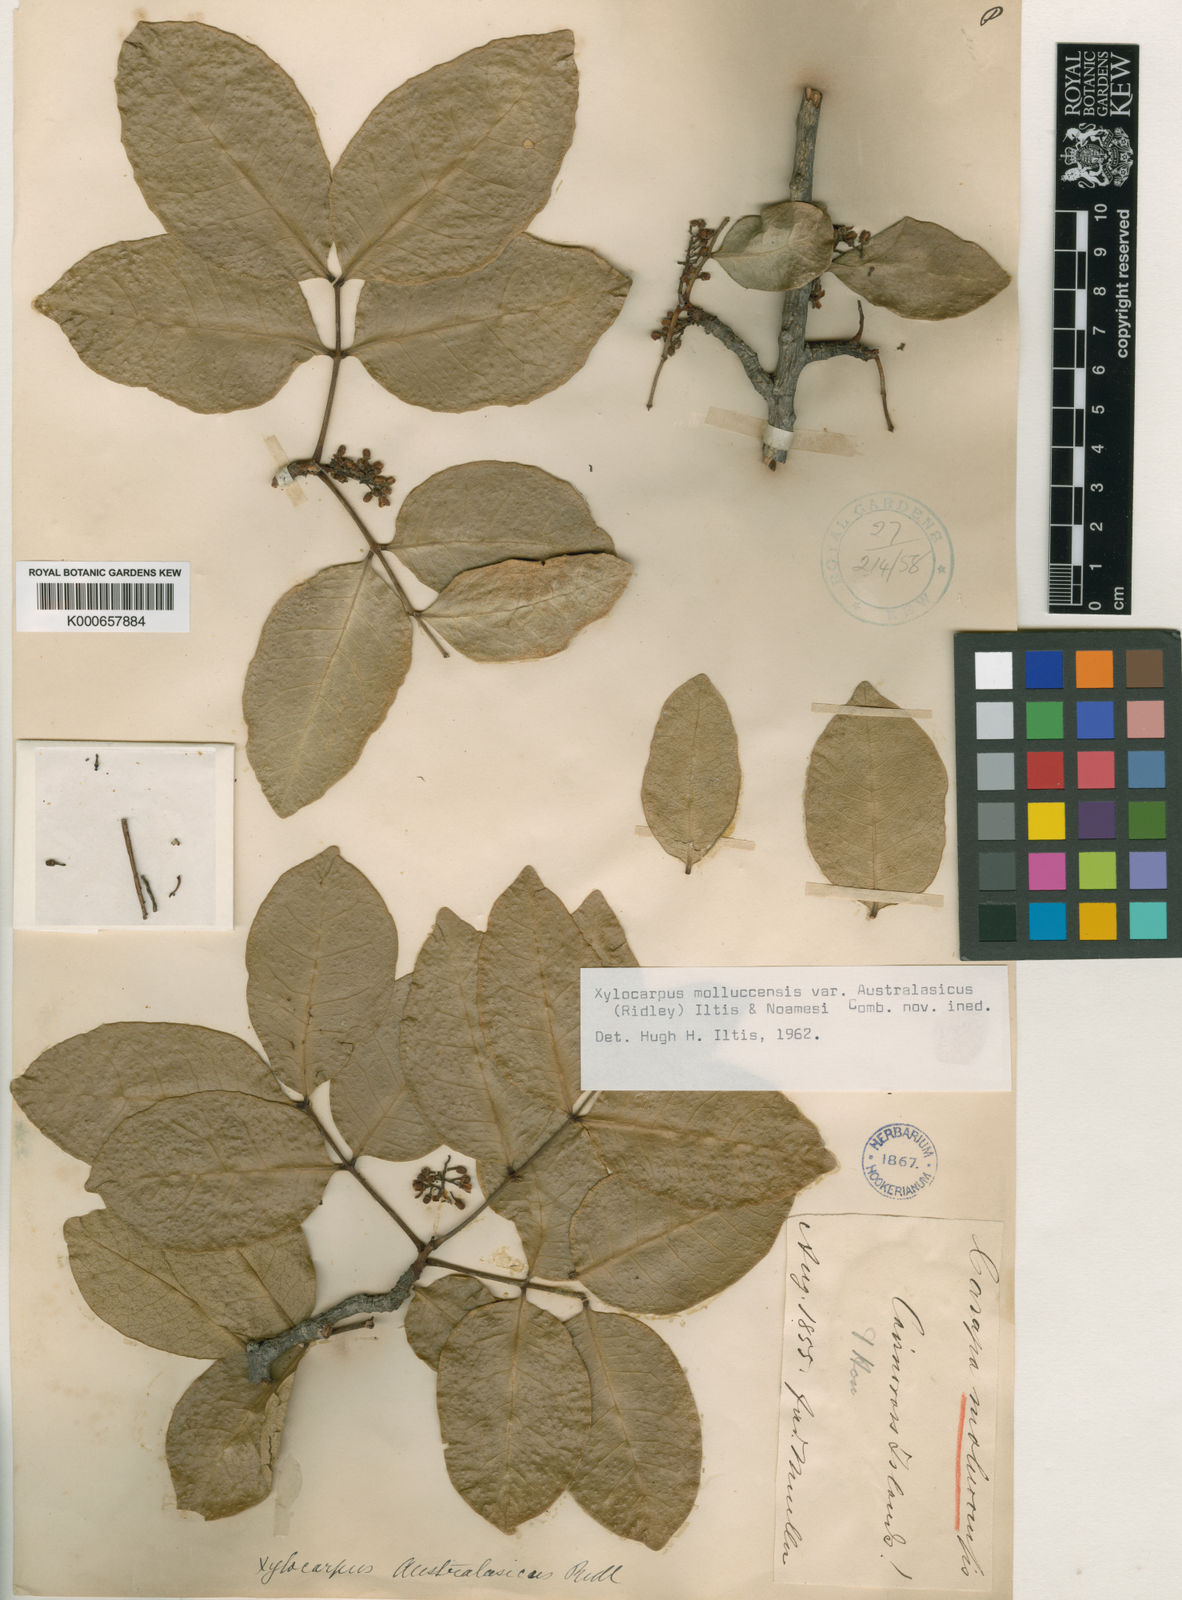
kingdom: Plantae
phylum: Tracheophyta
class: Magnoliopsida
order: Sapindales
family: Meliaceae
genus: Xylocarpus
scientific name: Xylocarpus moluccensis
